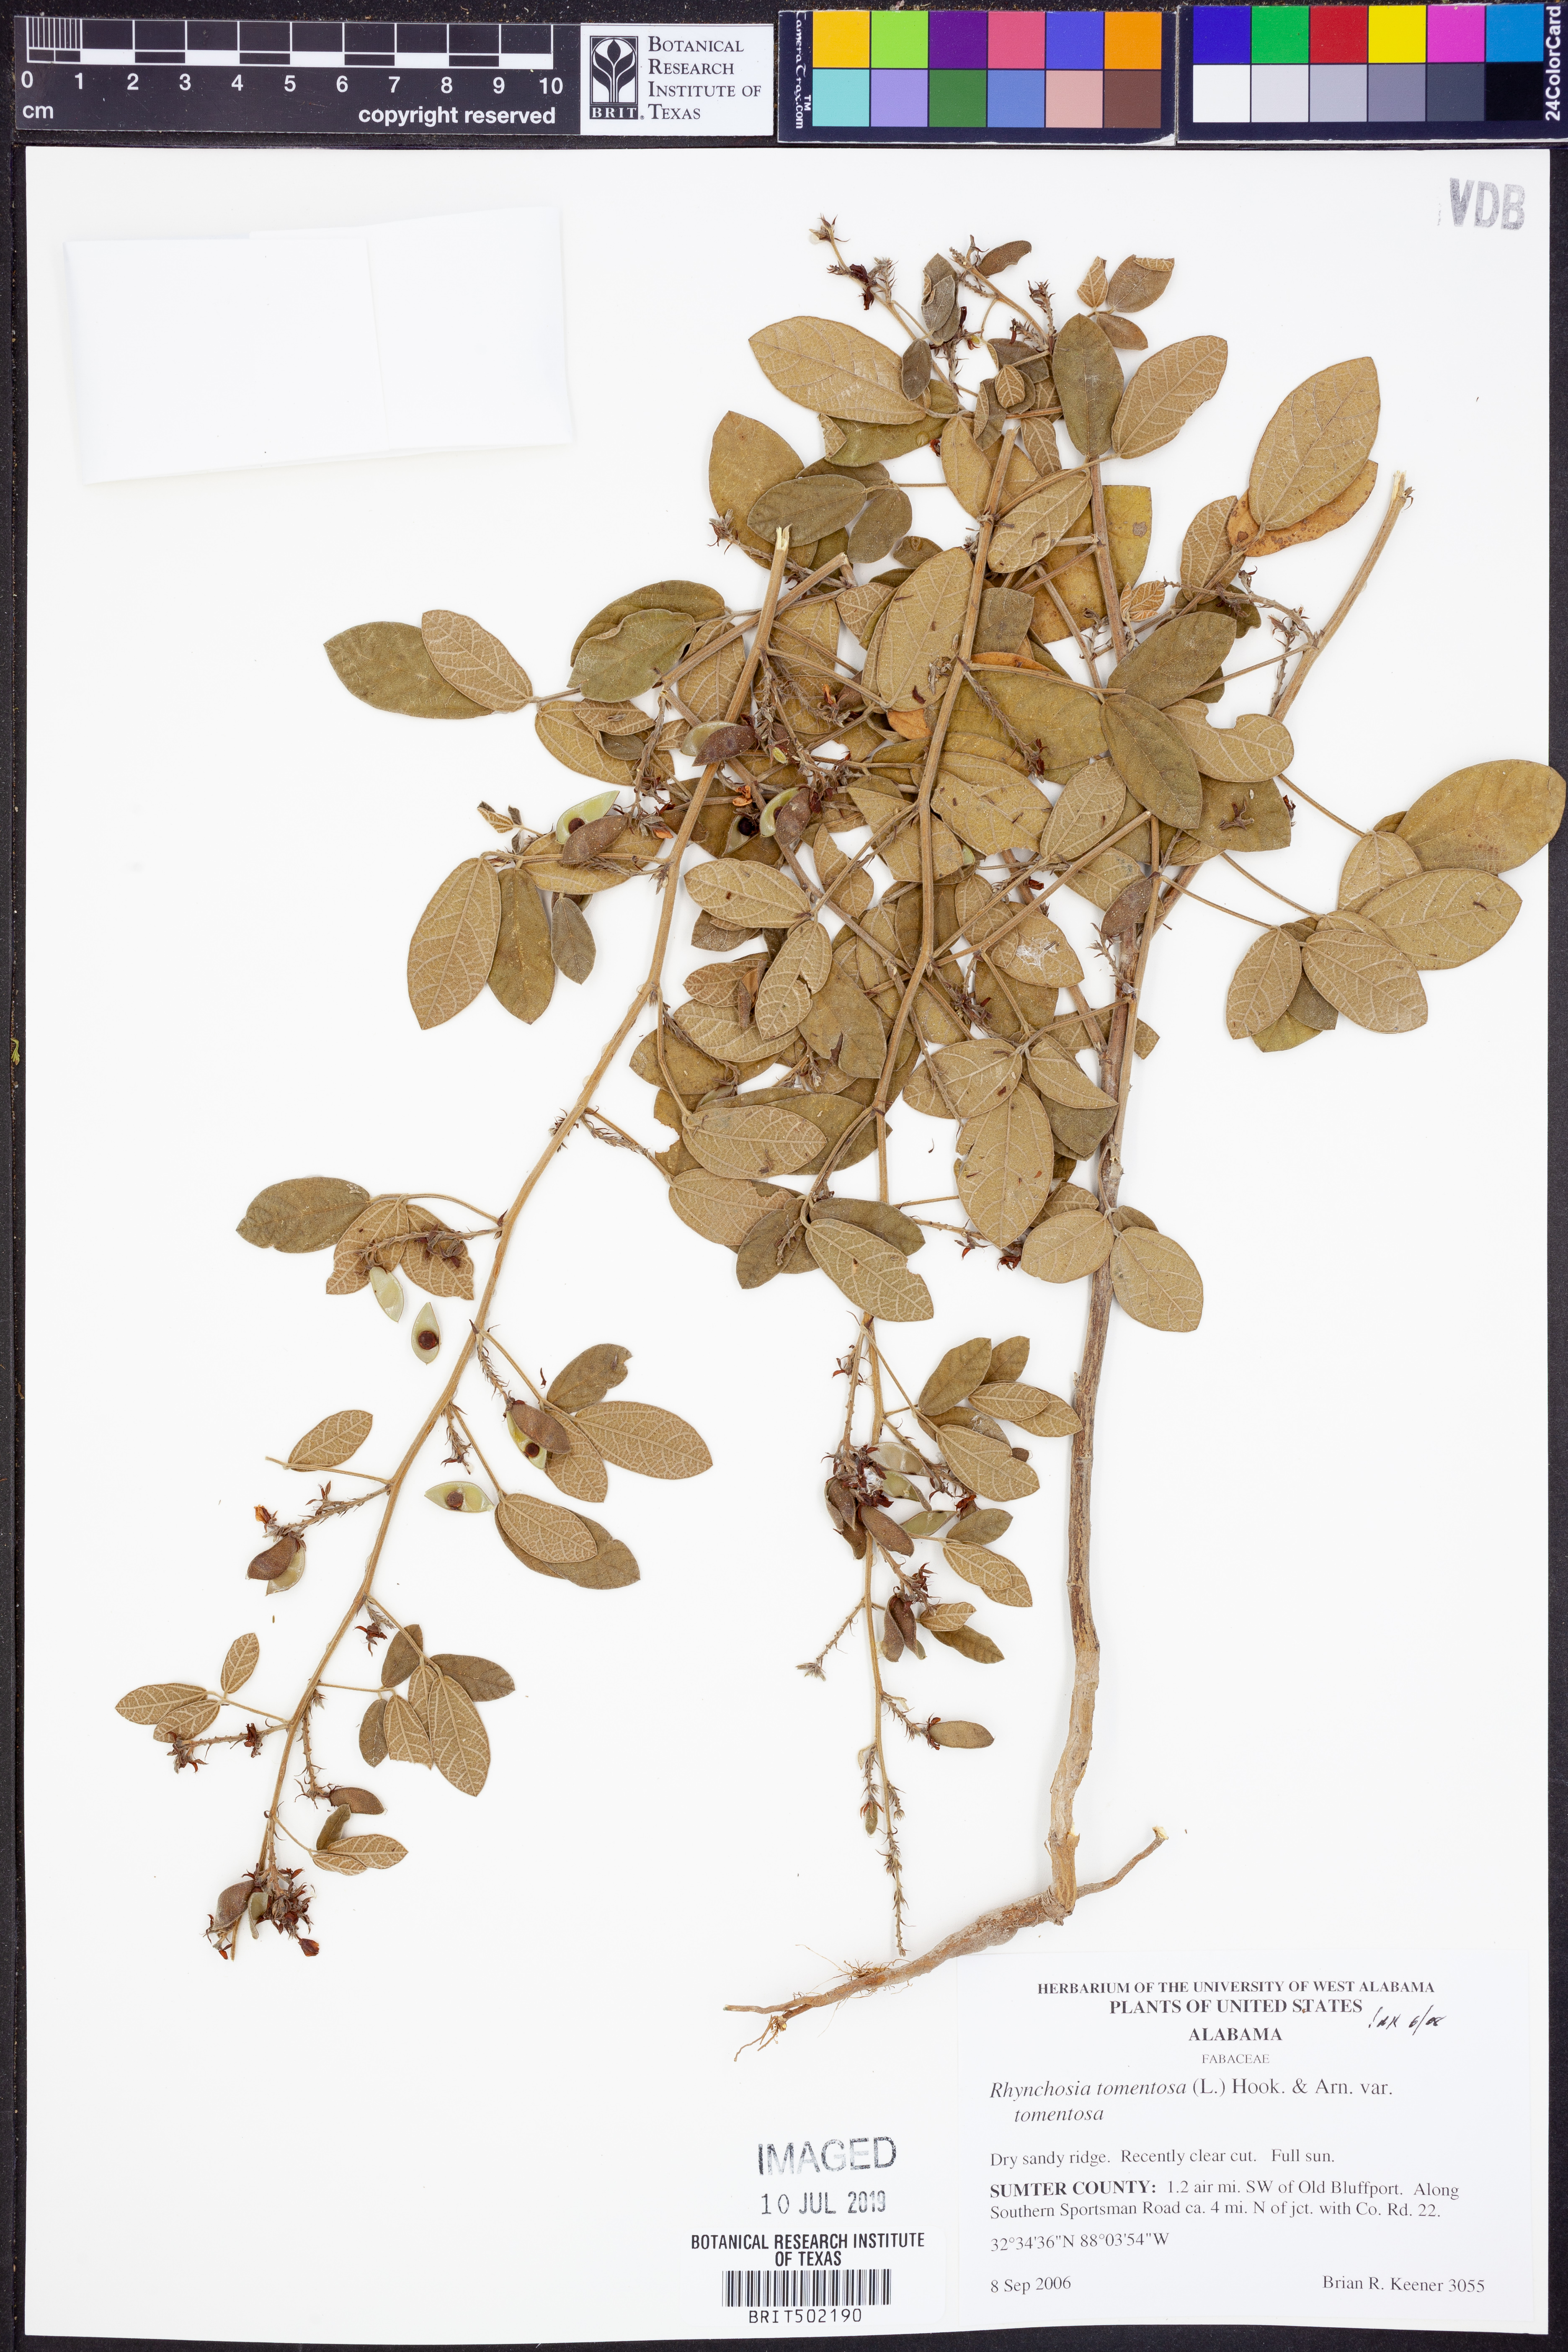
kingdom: Plantae
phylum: Tracheophyta
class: Magnoliopsida
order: Fabales
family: Fabaceae
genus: Rhynchosia
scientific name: Rhynchosia tomentosa
